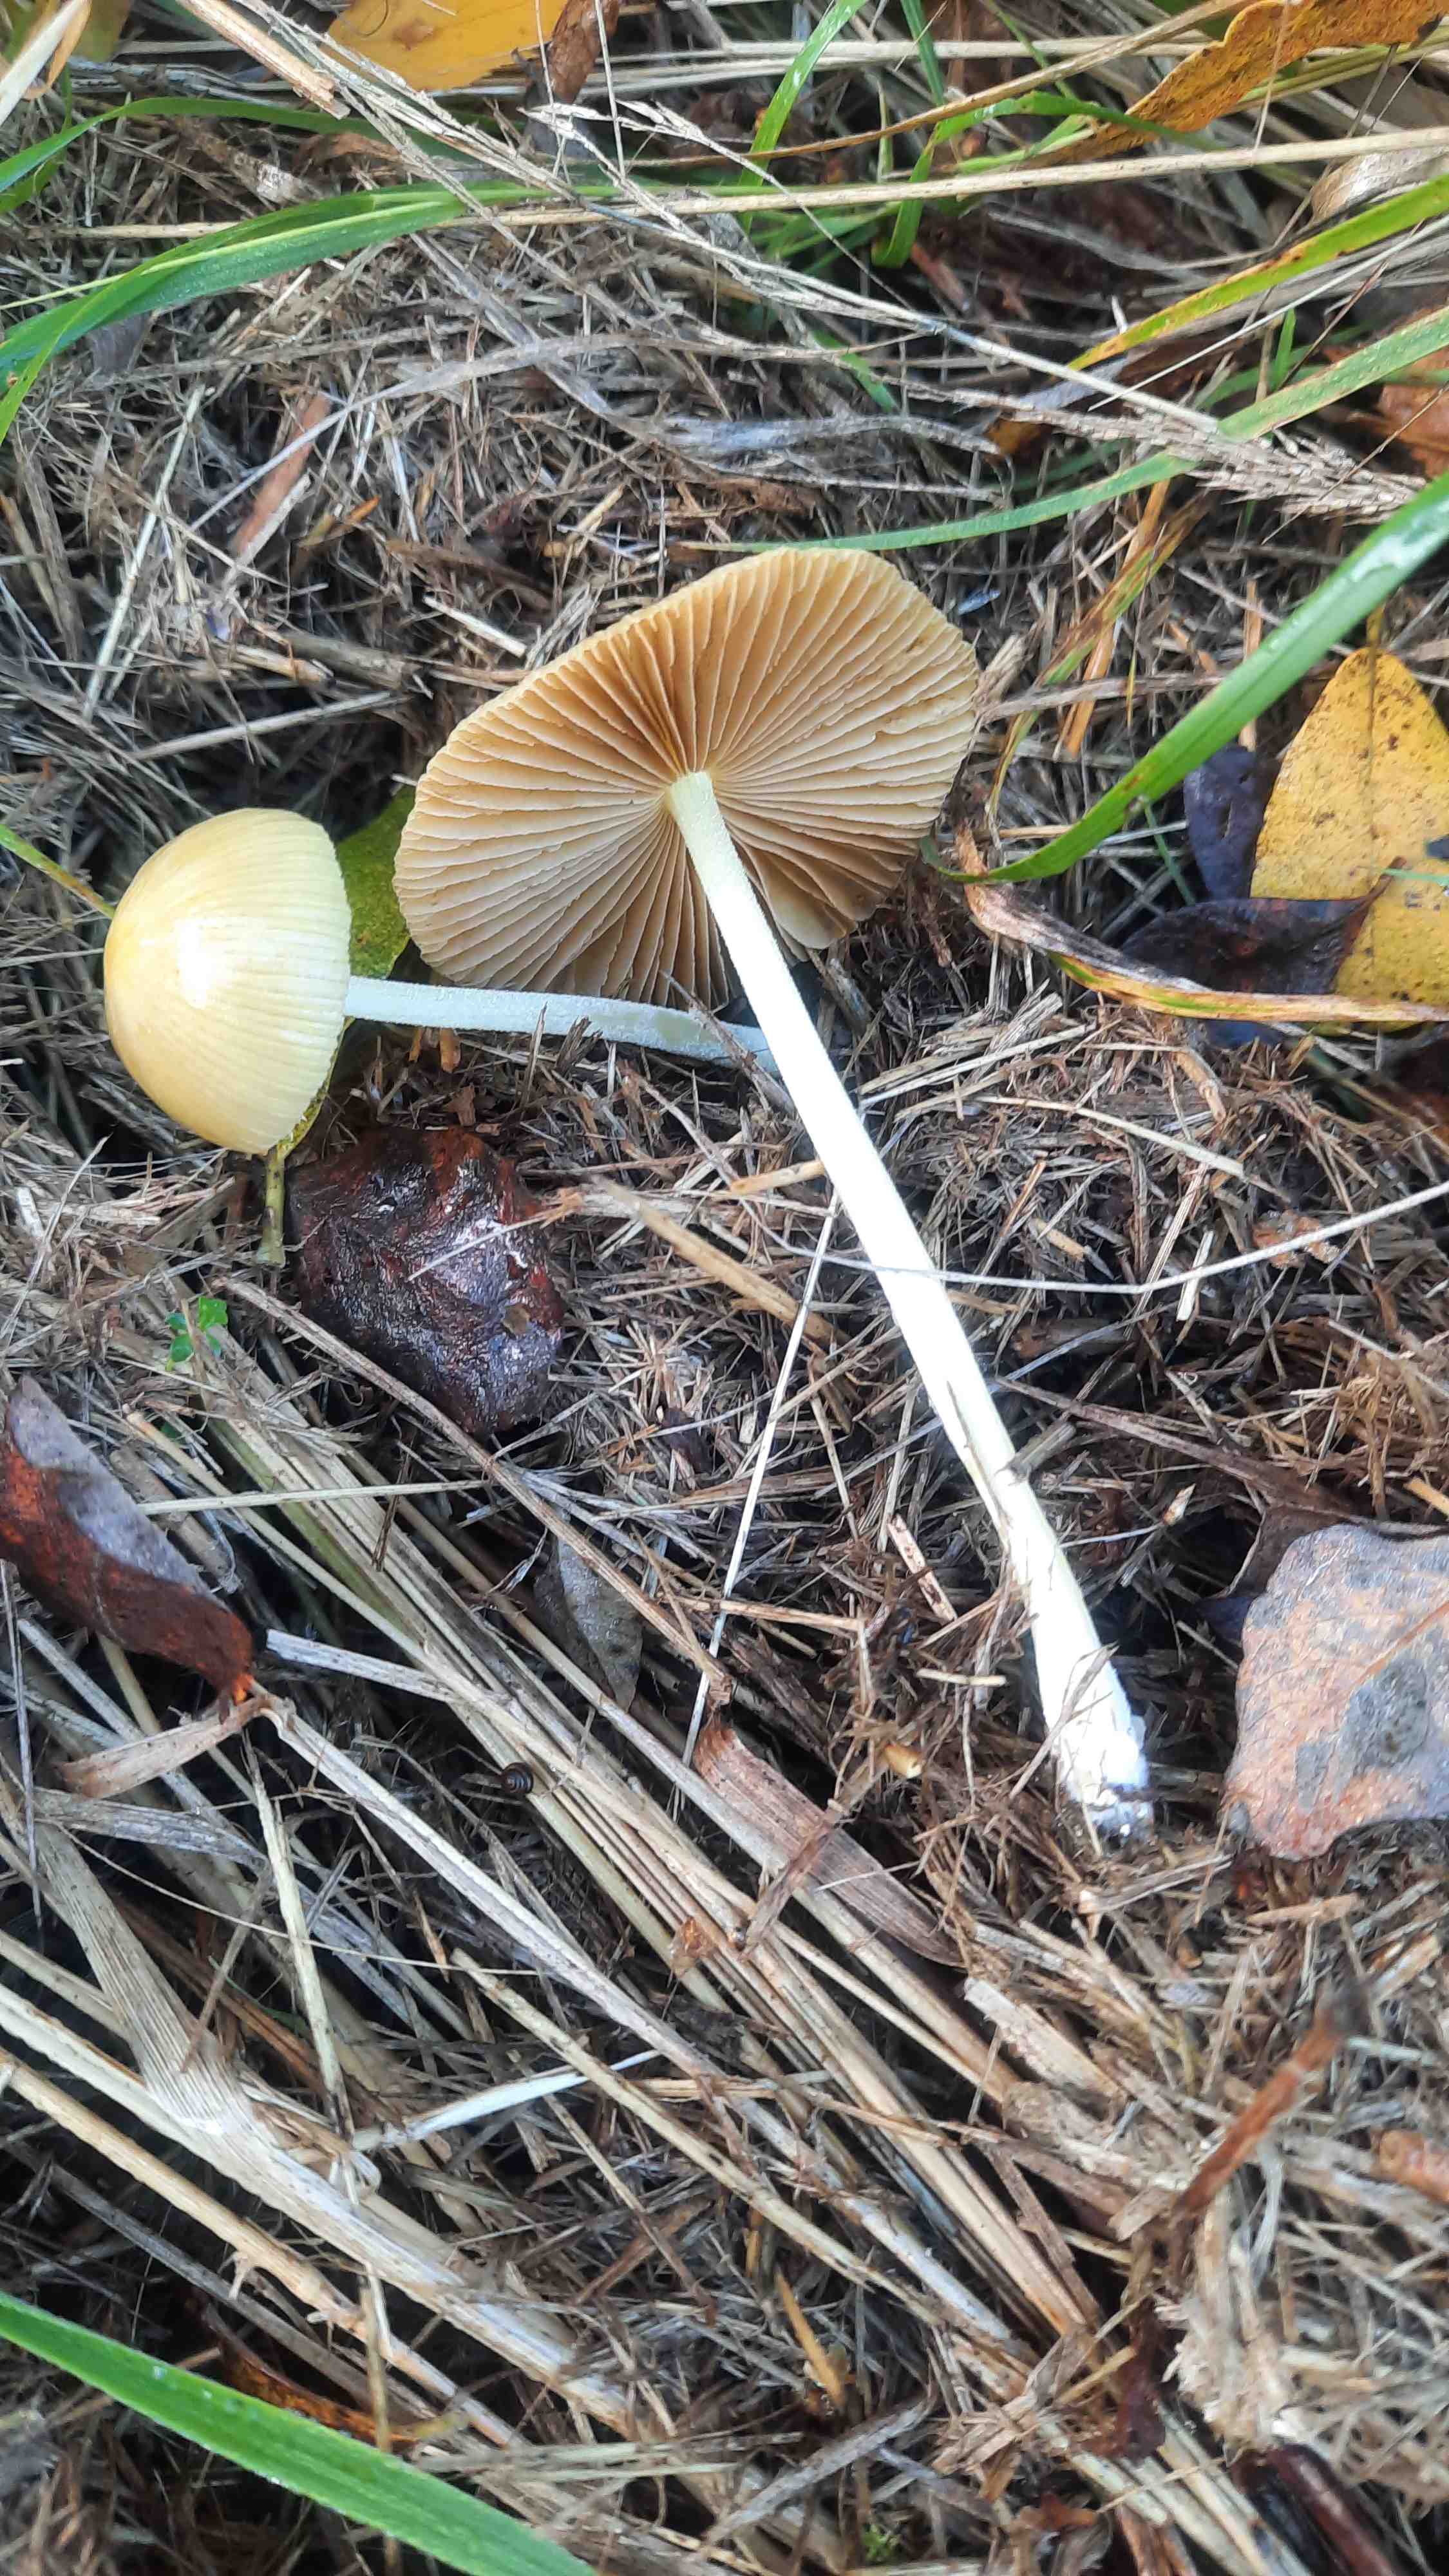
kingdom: Fungi
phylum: Basidiomycota
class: Agaricomycetes
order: Agaricales
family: Bolbitiaceae
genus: Bolbitius
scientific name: Bolbitius titubans
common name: almindelig gulhat
